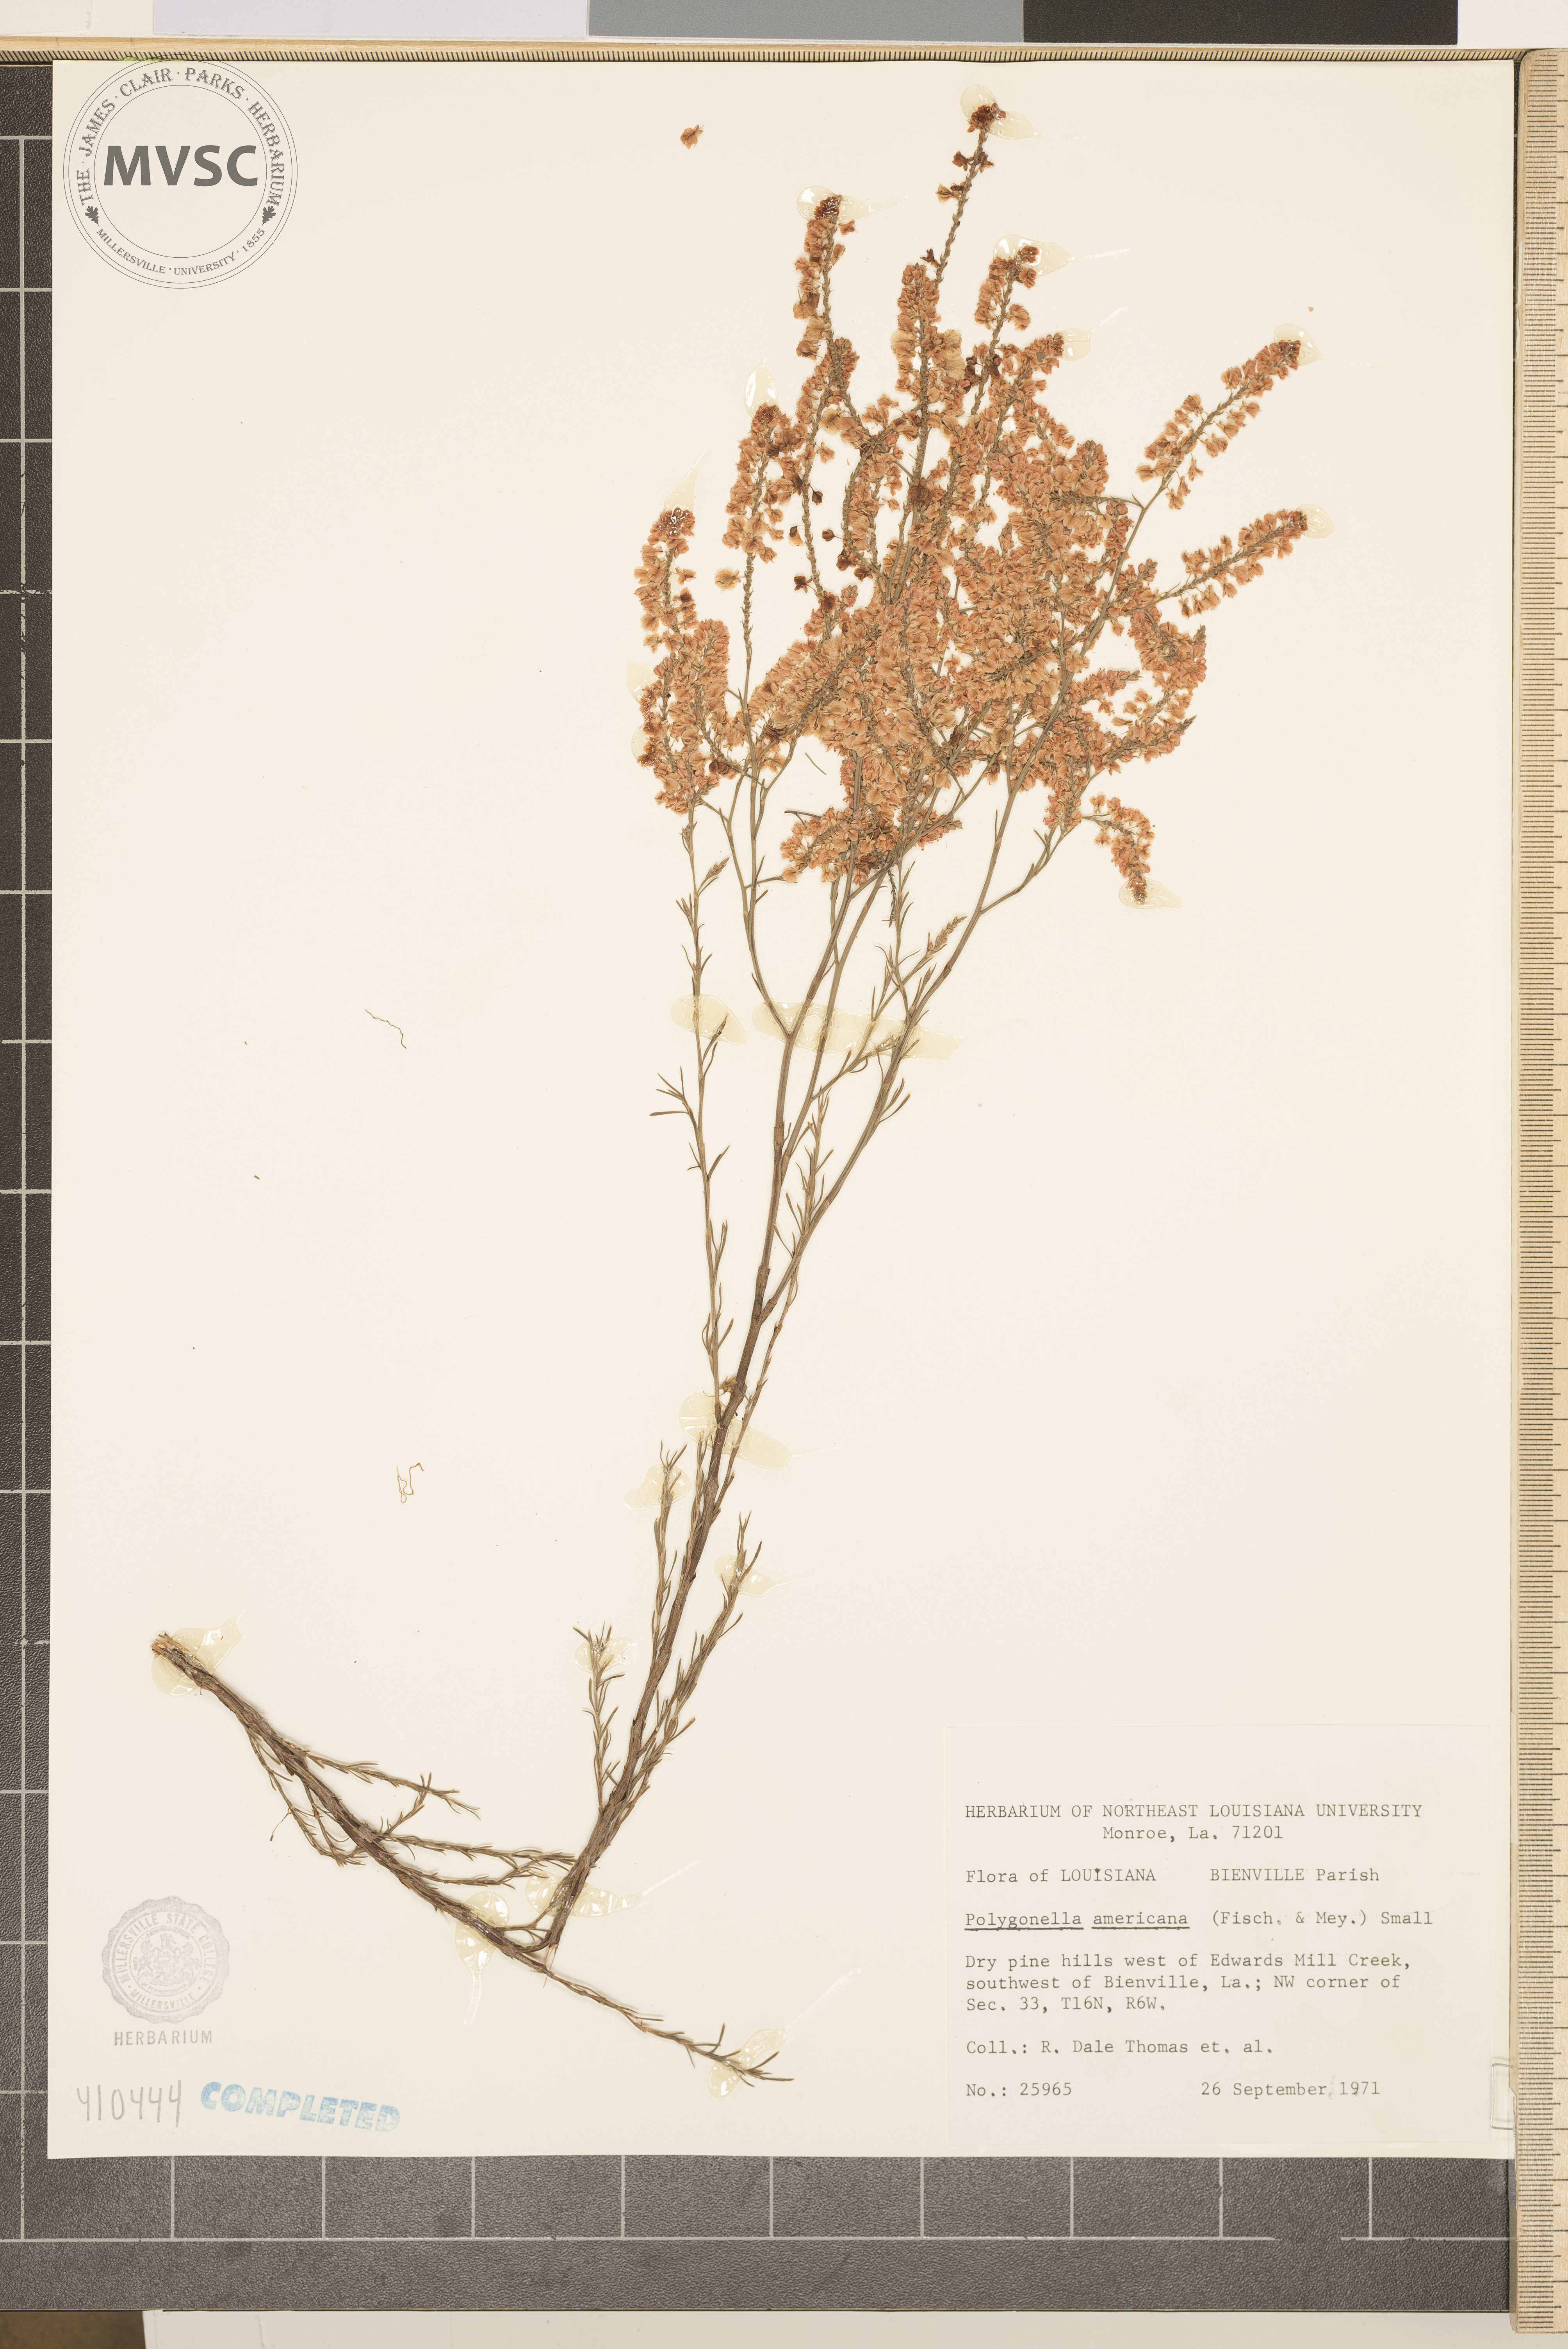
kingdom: Plantae
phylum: Tracheophyta
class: Magnoliopsida
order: Caryophyllales
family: Polygonaceae
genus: Polygonella
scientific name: Polygonella americana
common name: Southern jointweed
